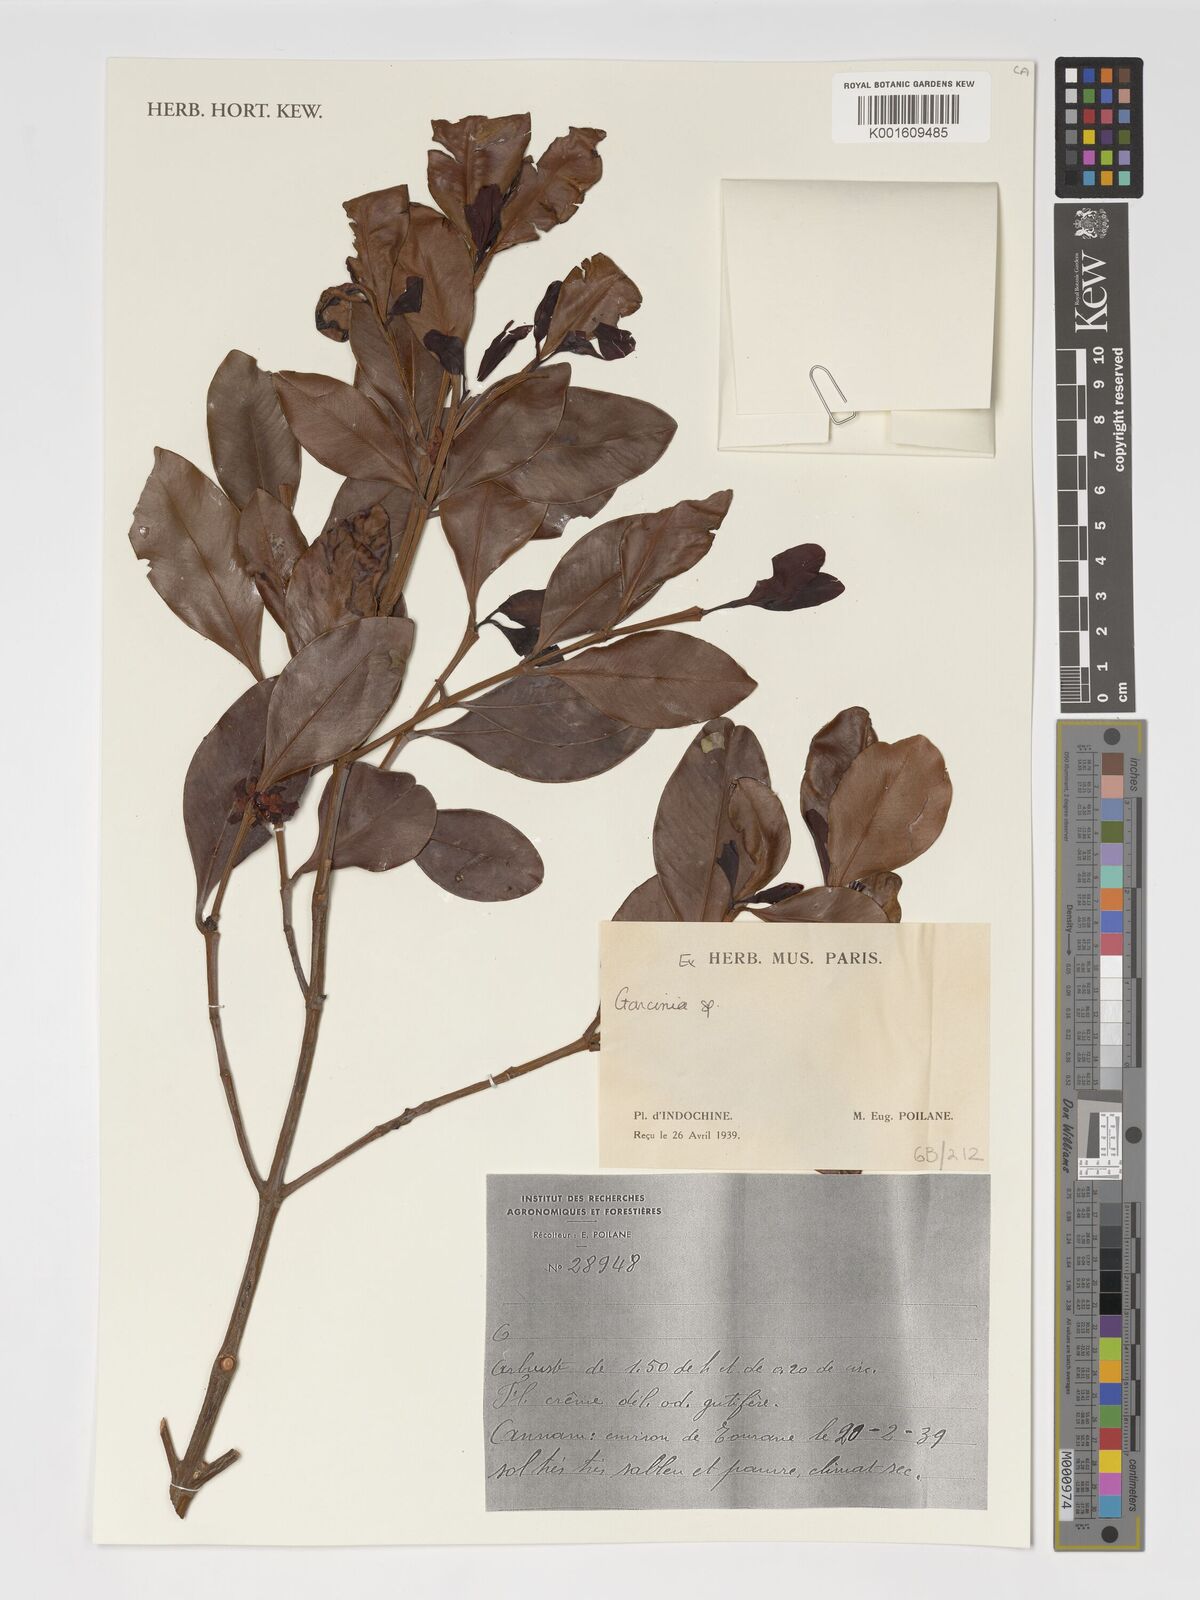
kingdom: Plantae
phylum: Tracheophyta
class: Magnoliopsida
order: Malpighiales
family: Clusiaceae
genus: Garcinia
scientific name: Garcinia
